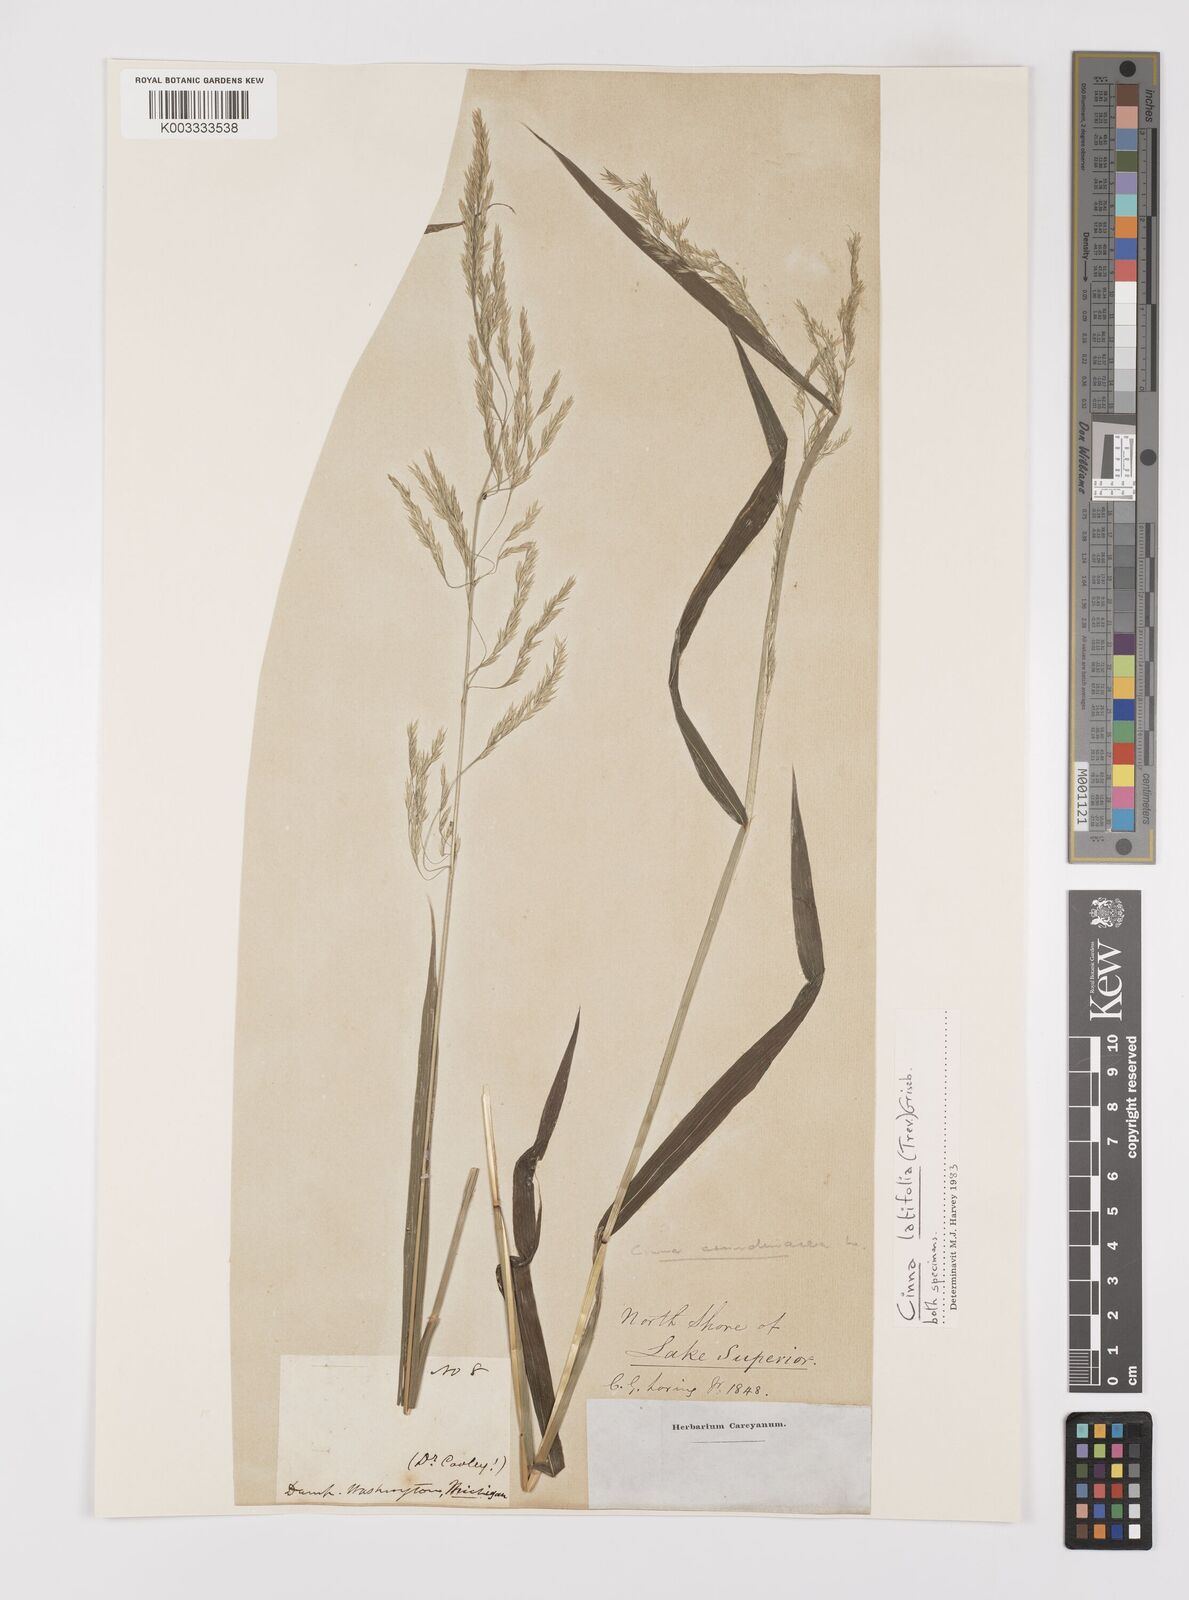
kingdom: Plantae
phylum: Tracheophyta
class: Liliopsida
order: Poales
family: Poaceae
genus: Cinna
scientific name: Cinna
